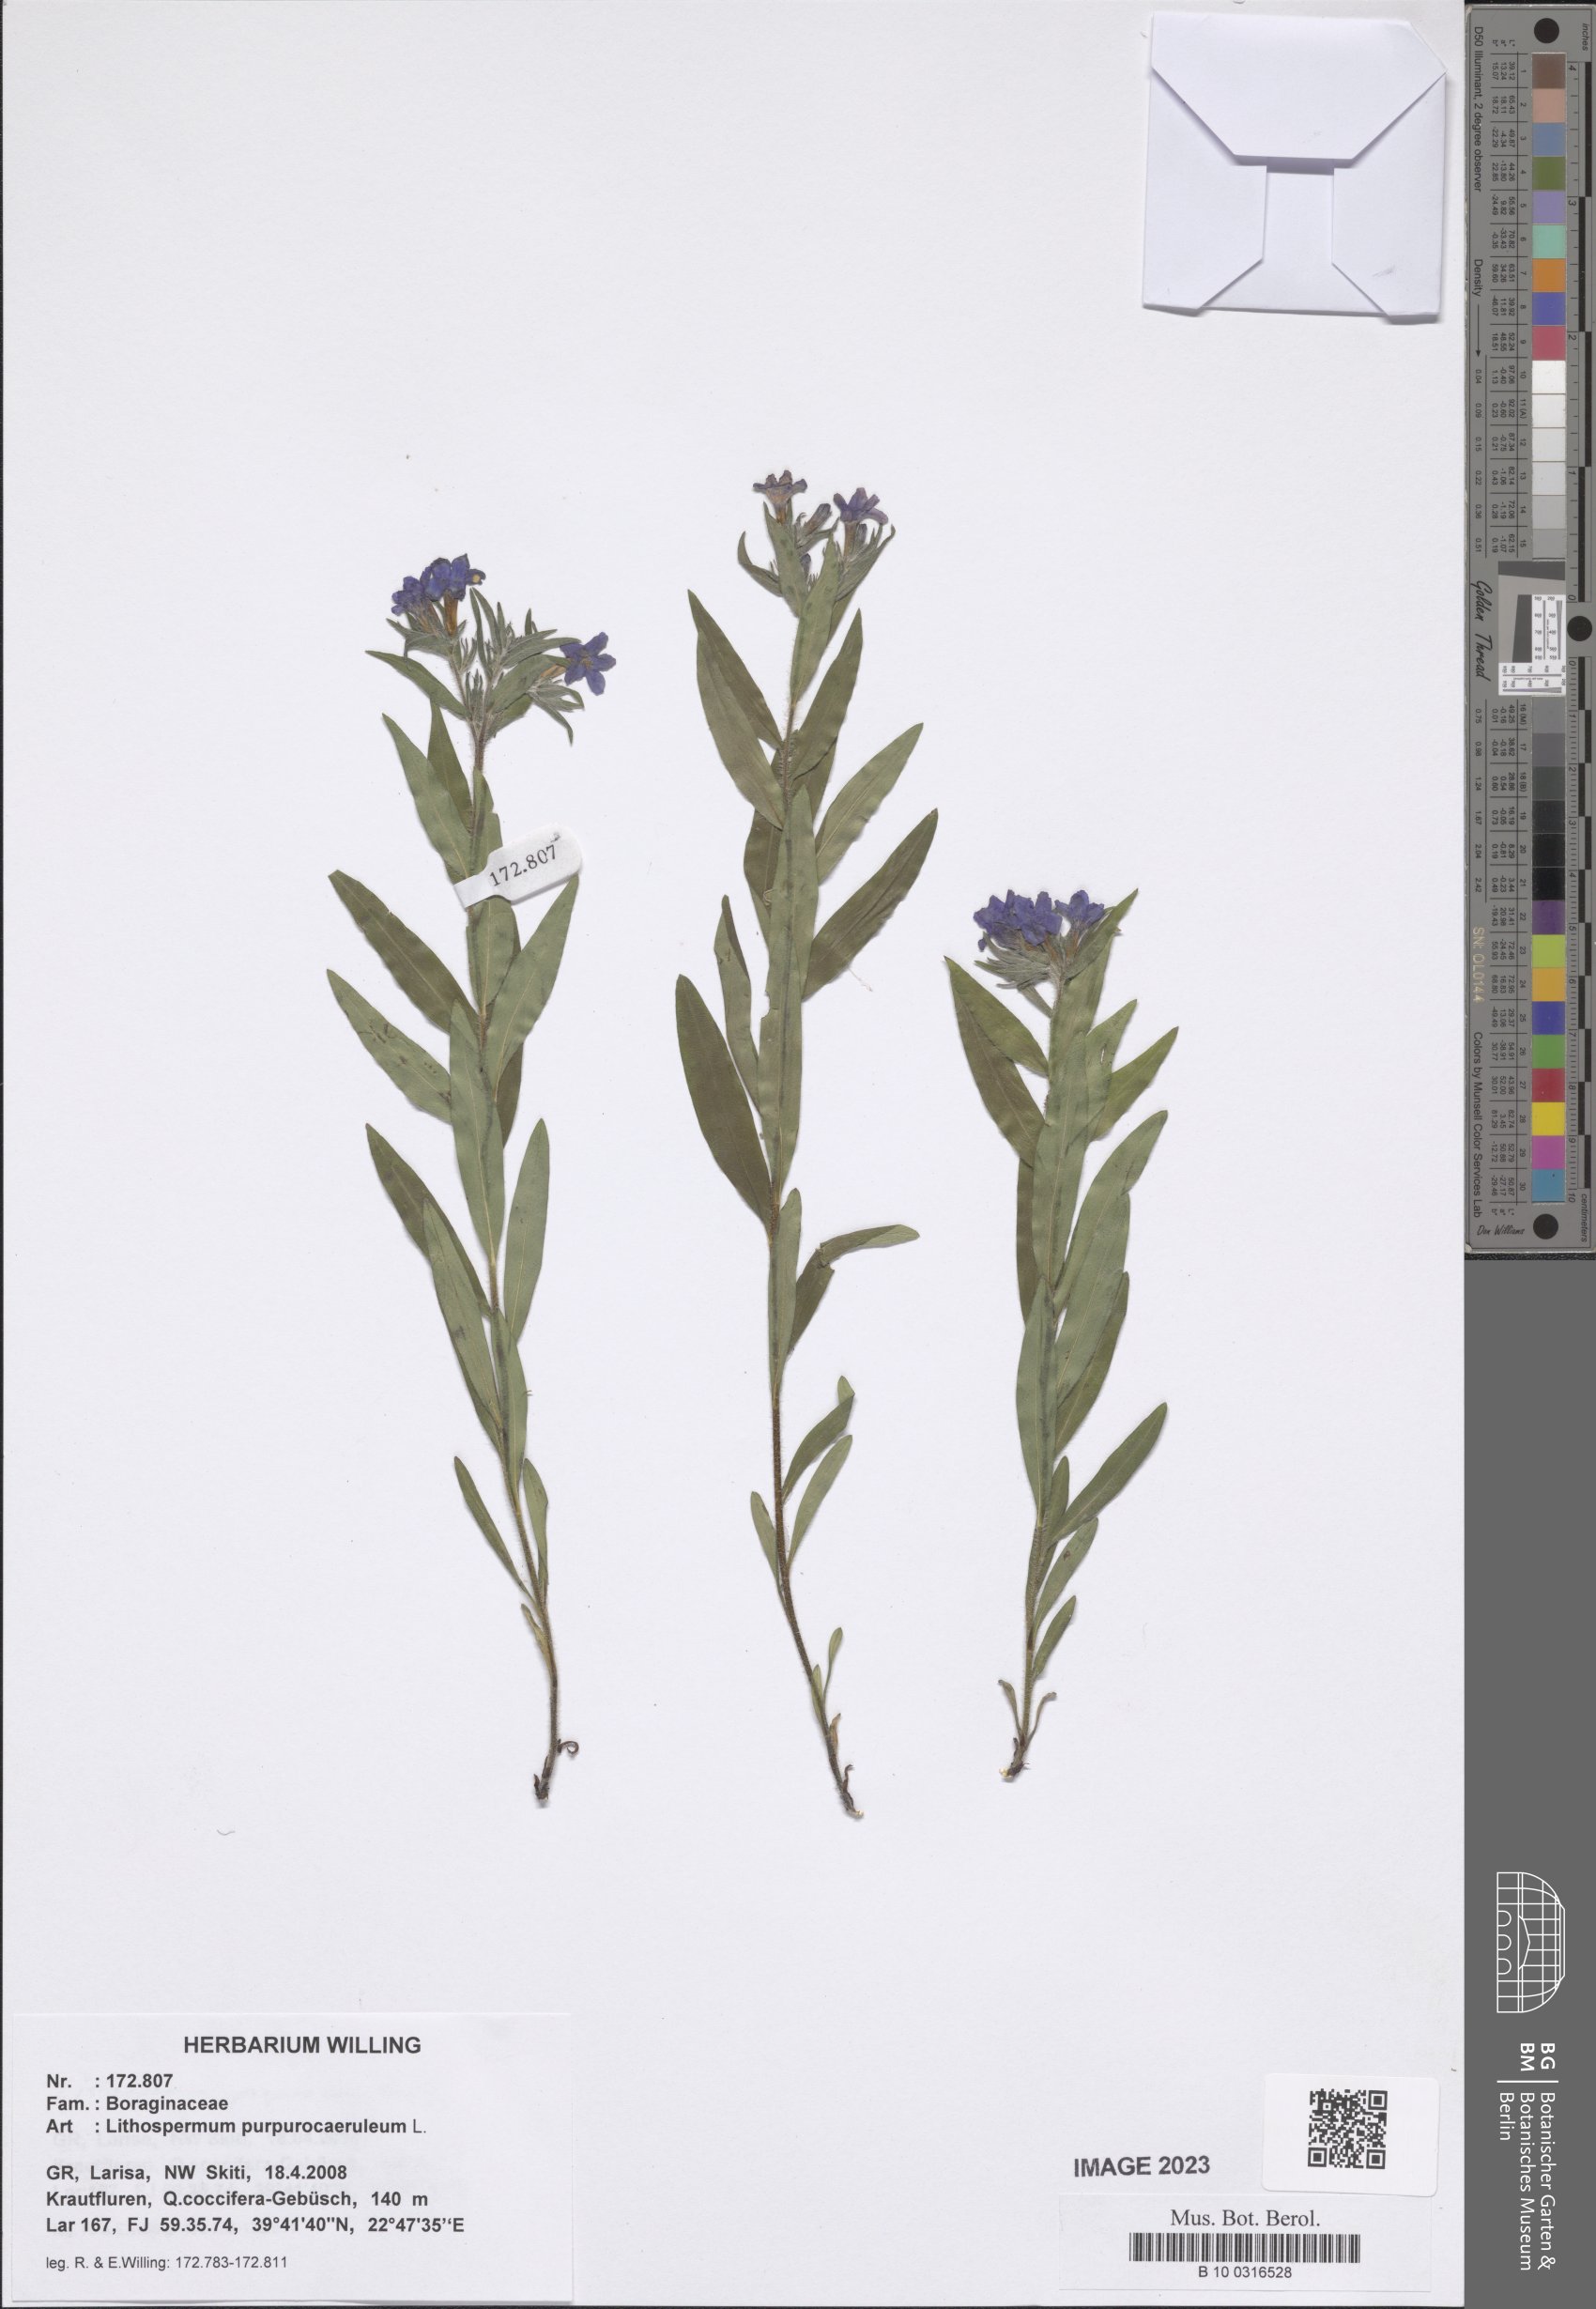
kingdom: Plantae
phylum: Tracheophyta
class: Magnoliopsida
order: Boraginales
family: Boraginaceae
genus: Aegonychon
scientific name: Aegonychon purpurocaeruleum
